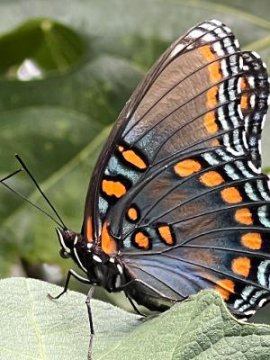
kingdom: Animalia
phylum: Arthropoda
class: Insecta
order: Lepidoptera
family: Nymphalidae
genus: Limenitis
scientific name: Limenitis arthemis
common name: Red-spotted Admiral
